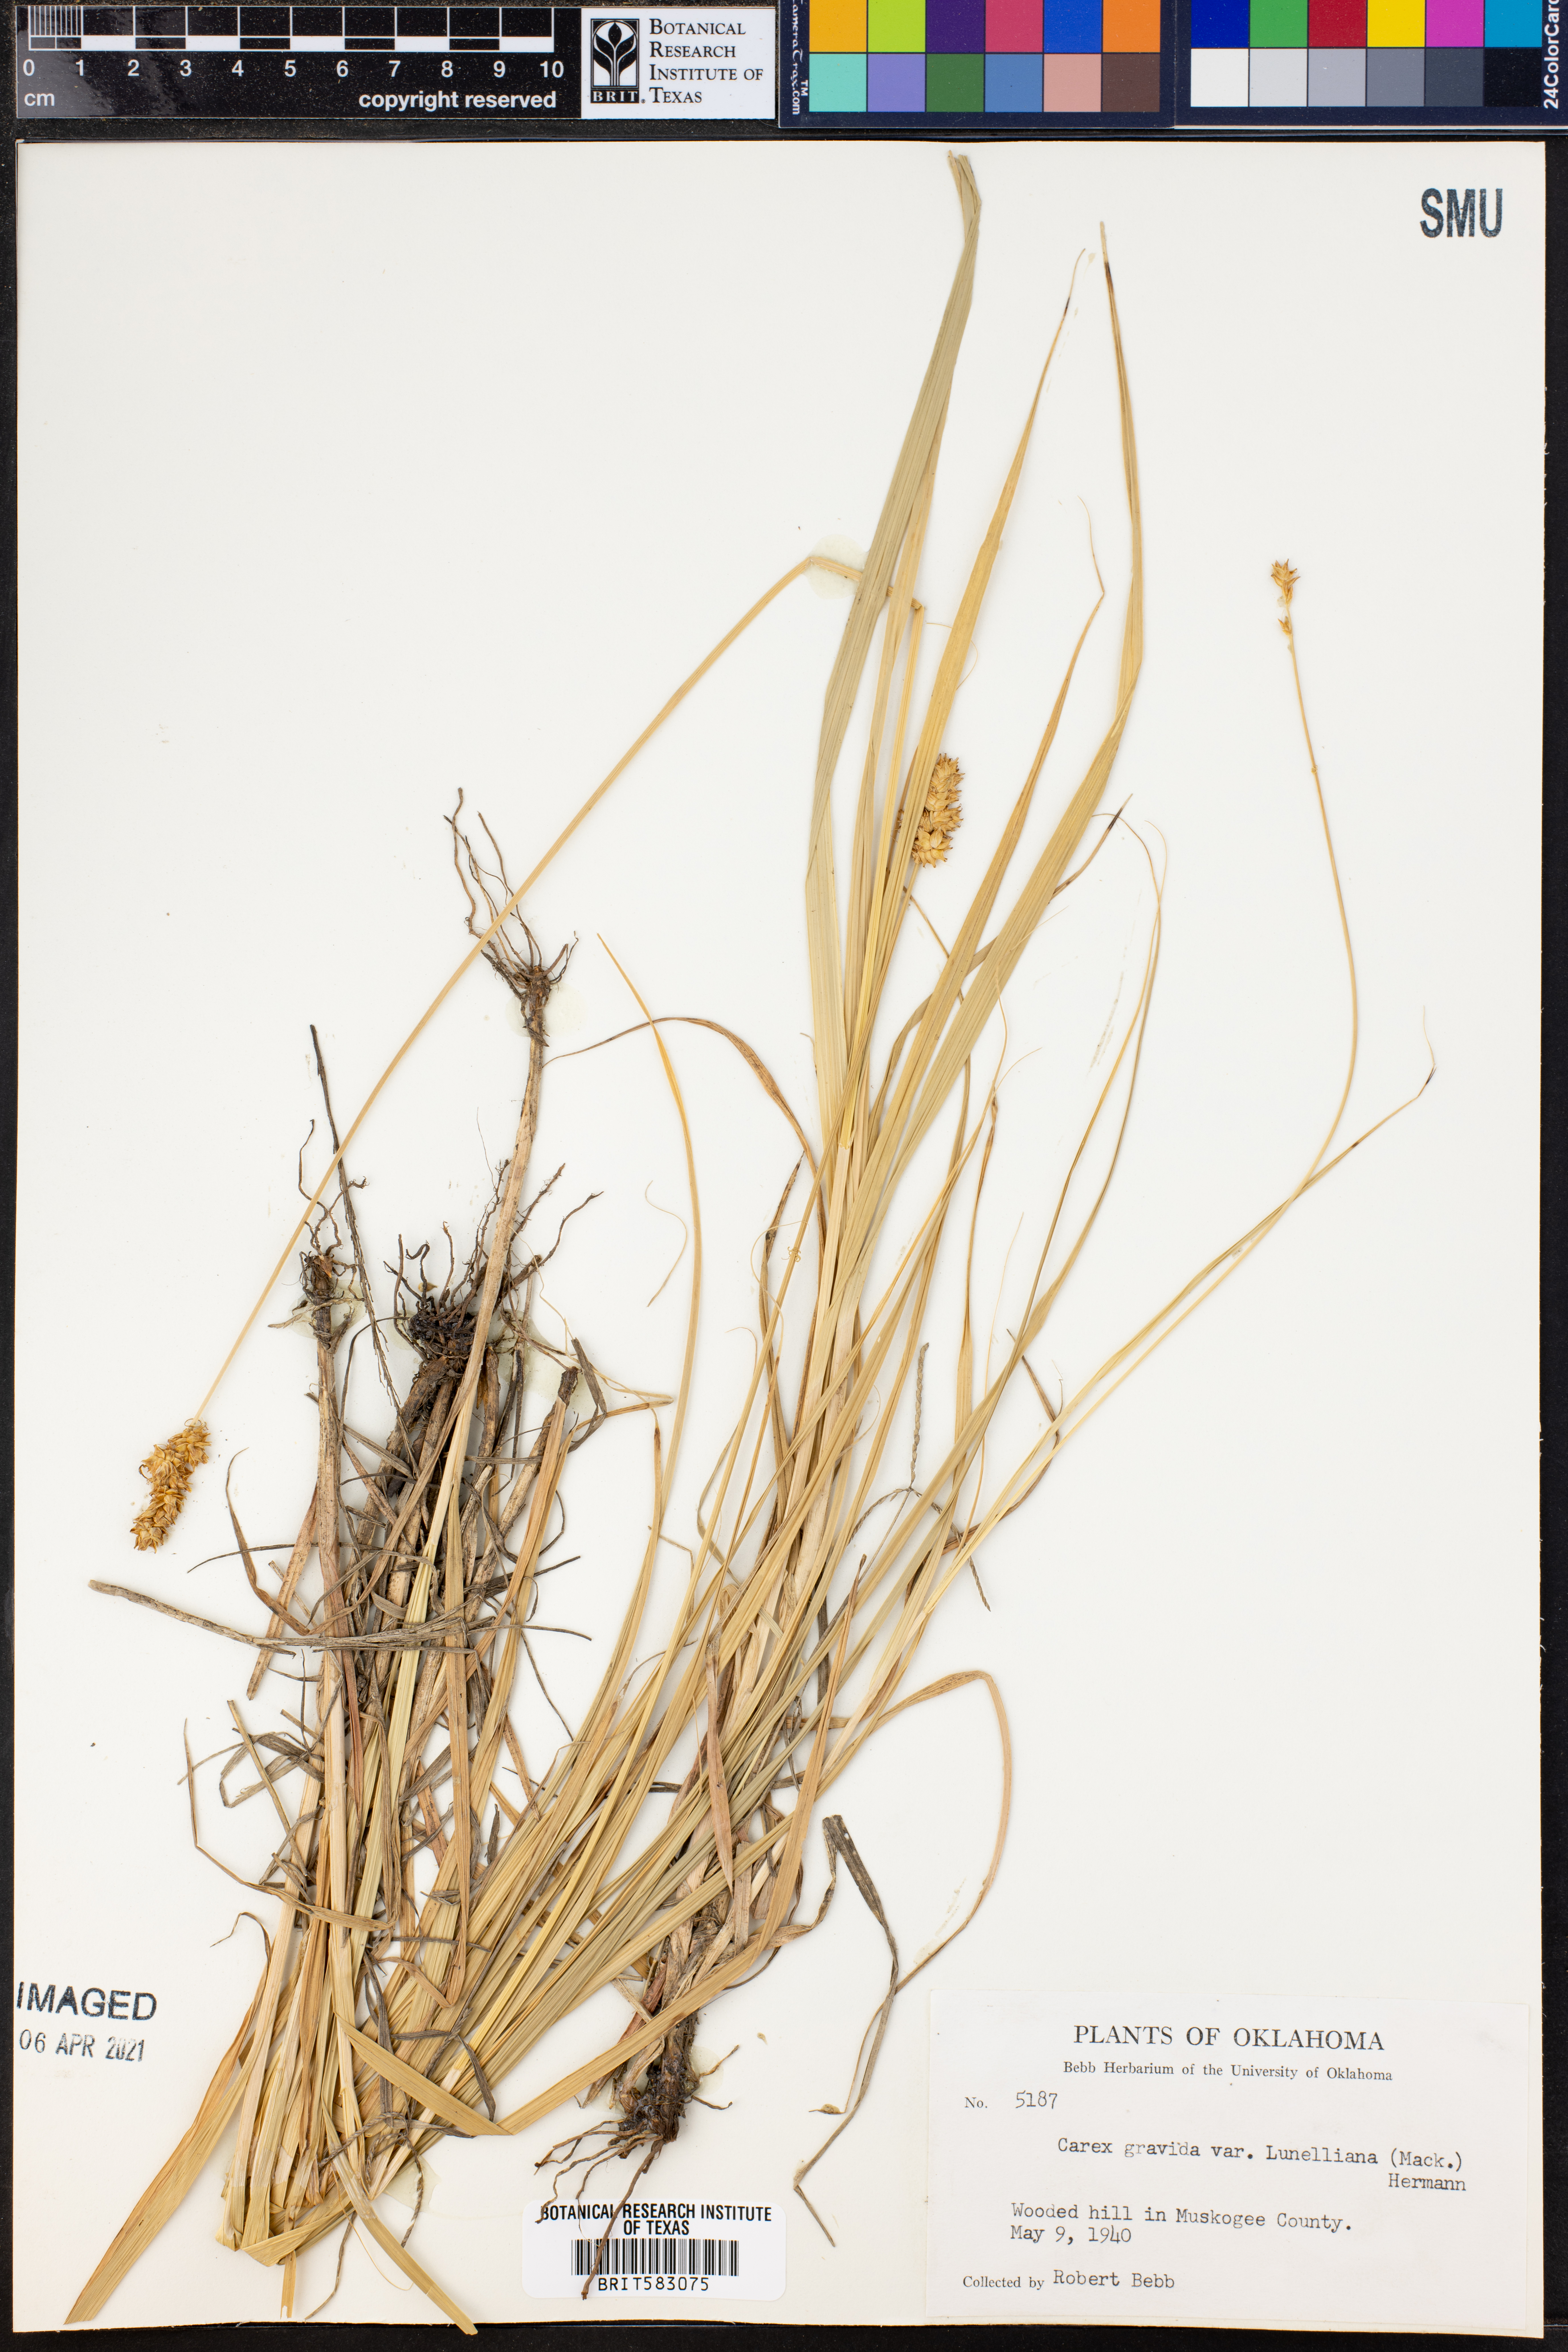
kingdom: Plantae
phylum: Tracheophyta
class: Liliopsida
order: Poales
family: Cyperaceae
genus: Carex
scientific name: Carex gravida
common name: Heavy sedge
